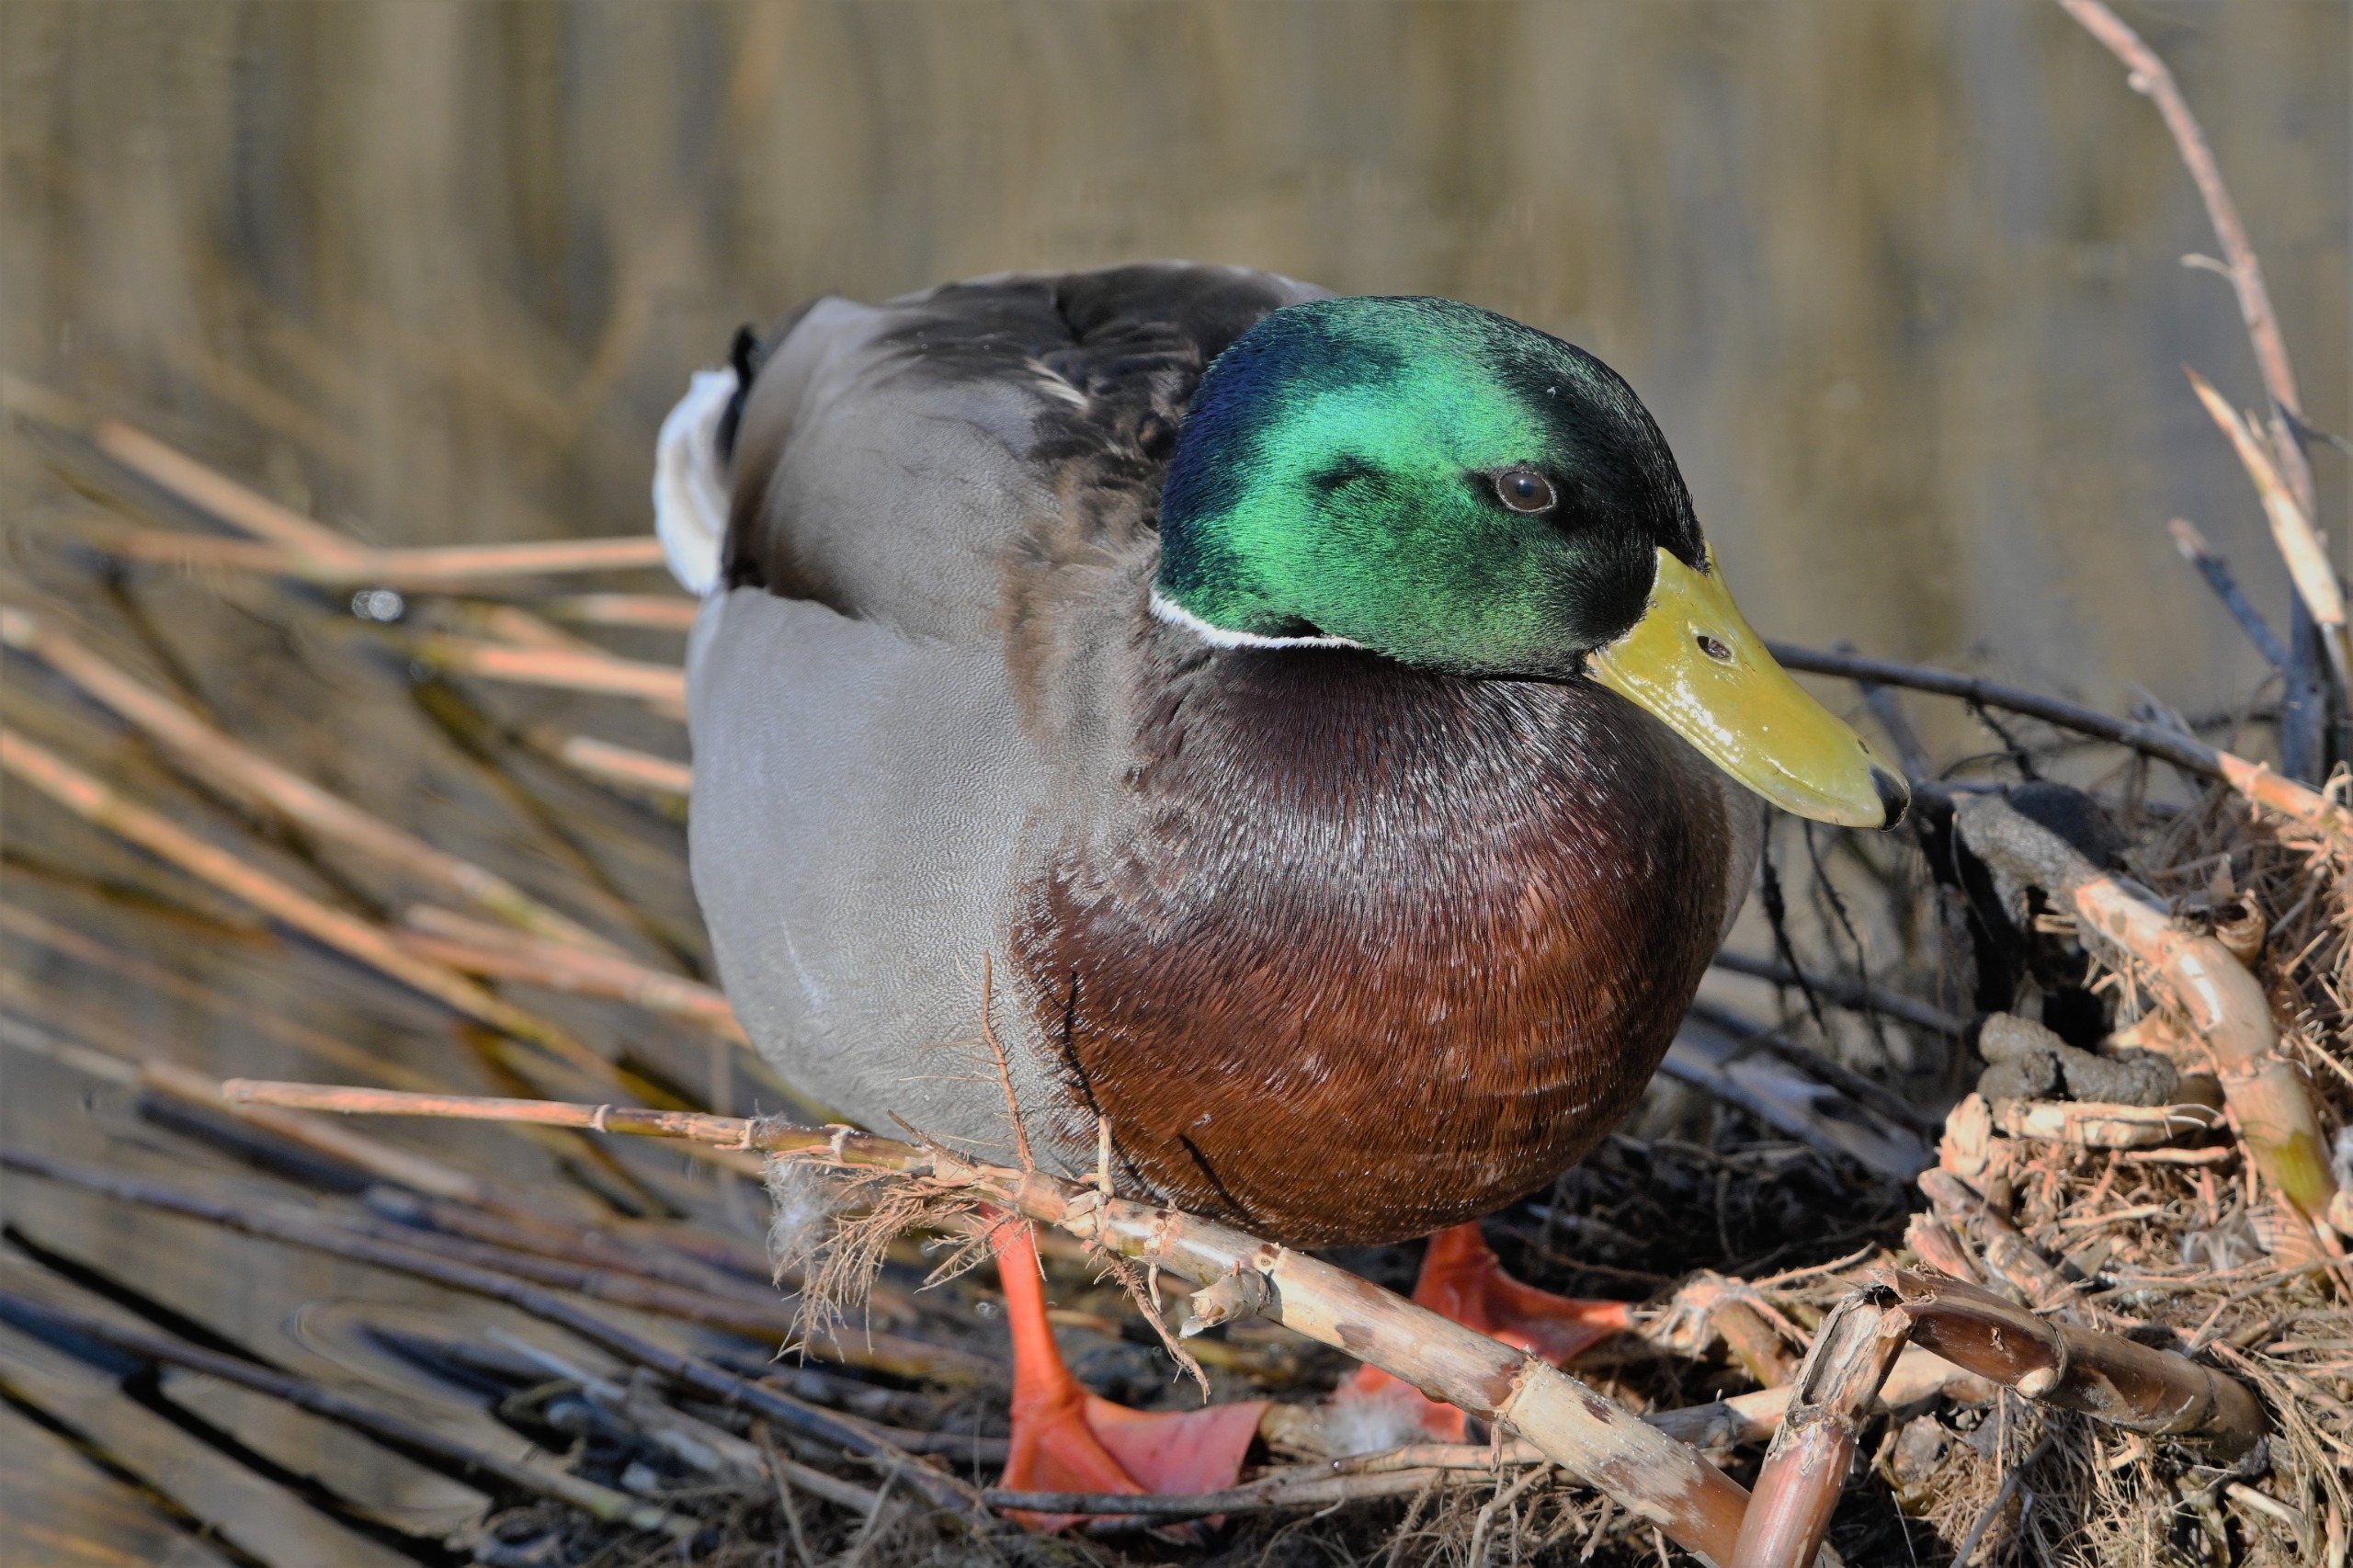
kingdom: Animalia
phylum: Chordata
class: Aves
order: Anseriformes
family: Anatidae
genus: Anas
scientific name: Anas platyrhynchos
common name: Gråand
